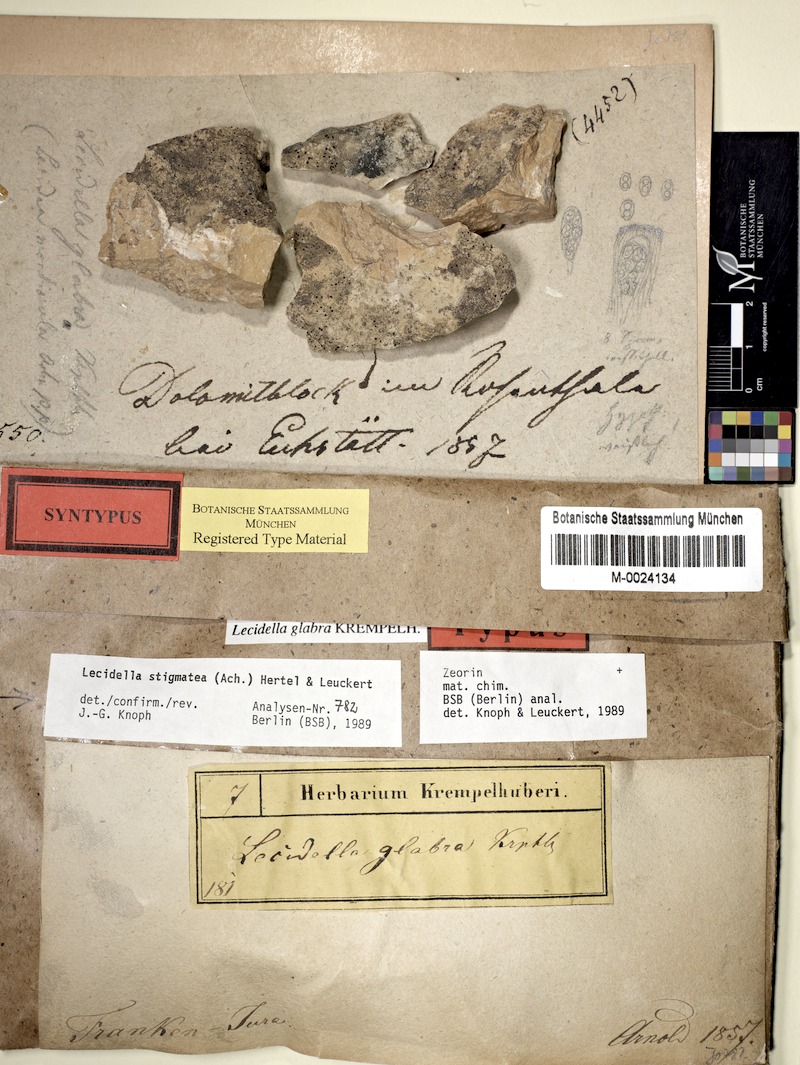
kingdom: Fungi
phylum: Ascomycota
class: Lecanoromycetes
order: Lecanorales
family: Lecanoraceae
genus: Lecidella
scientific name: Lecidella stigmatea
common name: Limestone disc lichen
